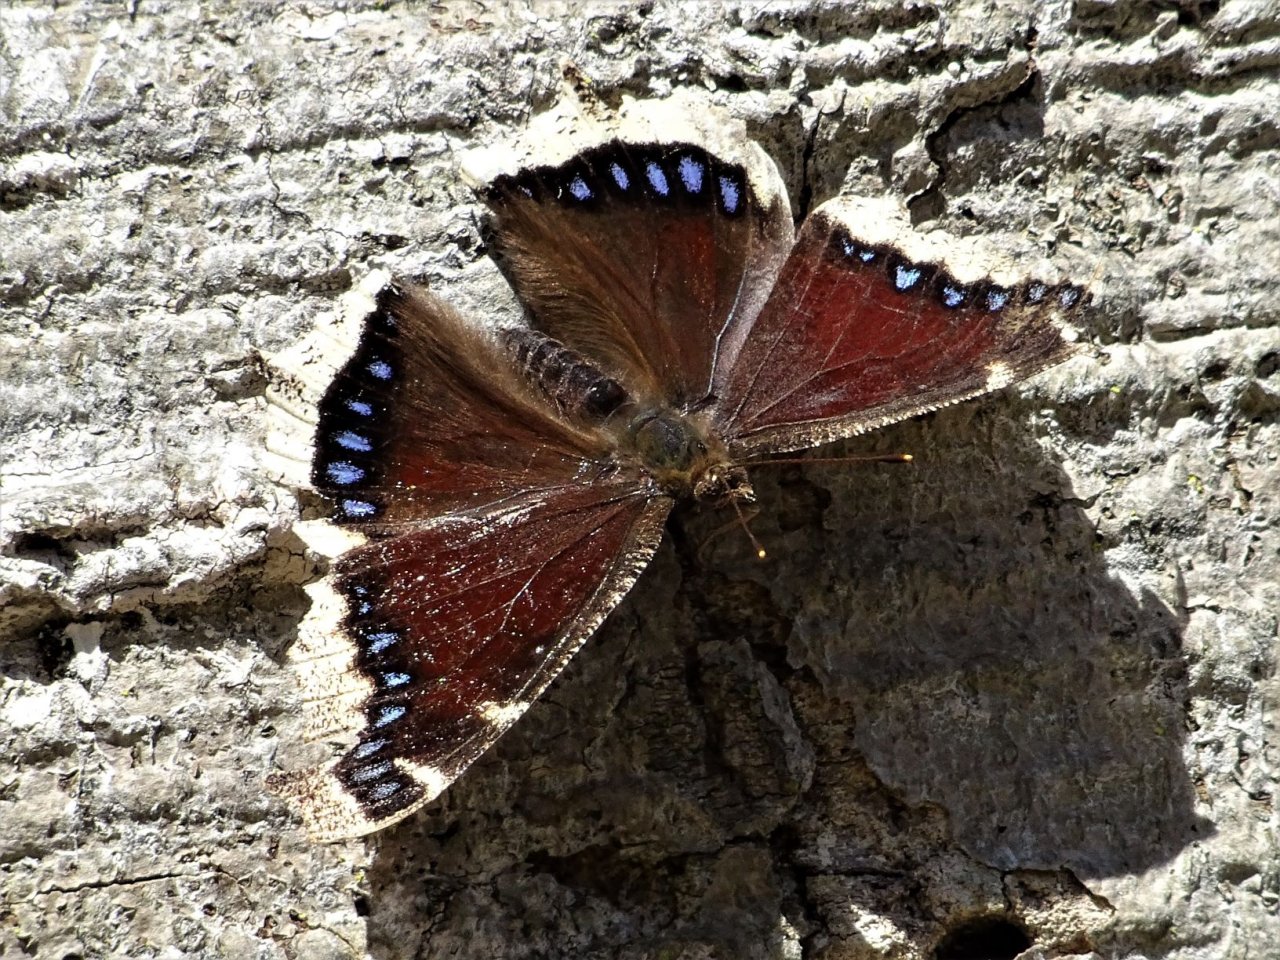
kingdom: Animalia
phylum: Arthropoda
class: Insecta
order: Lepidoptera
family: Nymphalidae
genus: Nymphalis
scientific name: Nymphalis antiopa
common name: Mourning Cloak
